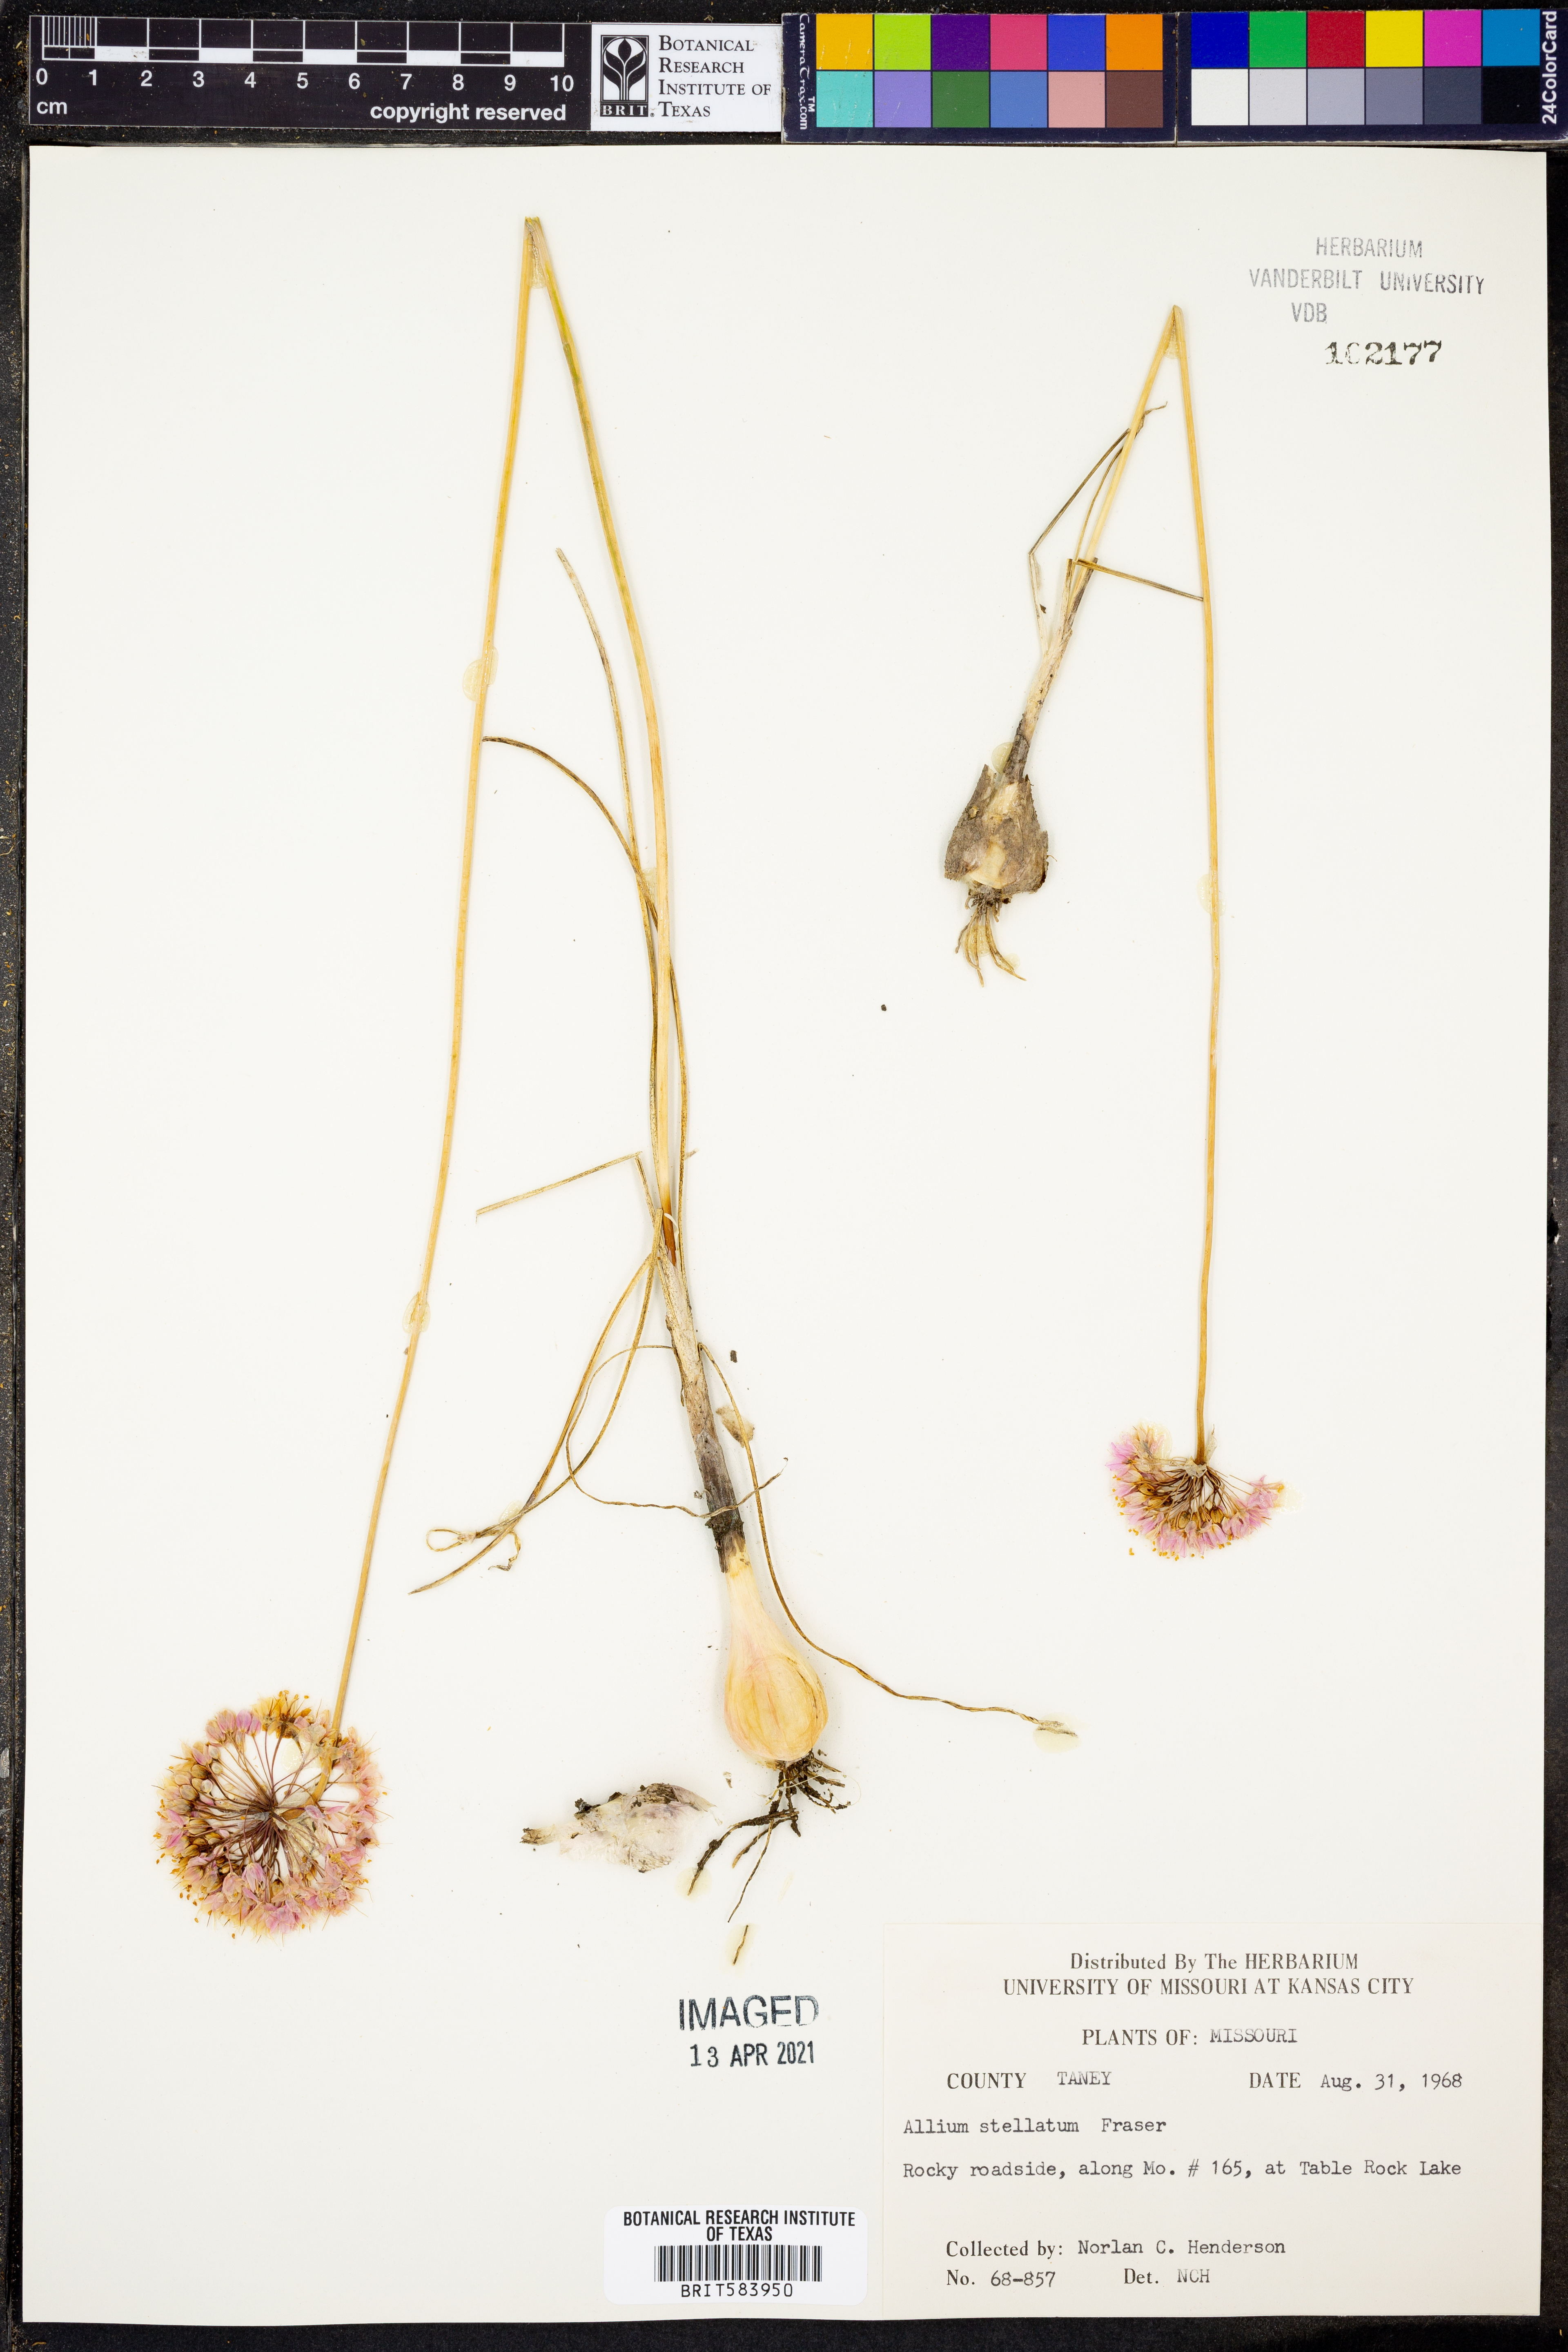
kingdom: Plantae
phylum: Tracheophyta
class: Liliopsida
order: Asparagales
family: Amaryllidaceae
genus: Allium
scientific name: Allium stellatum
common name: Autumn onion
